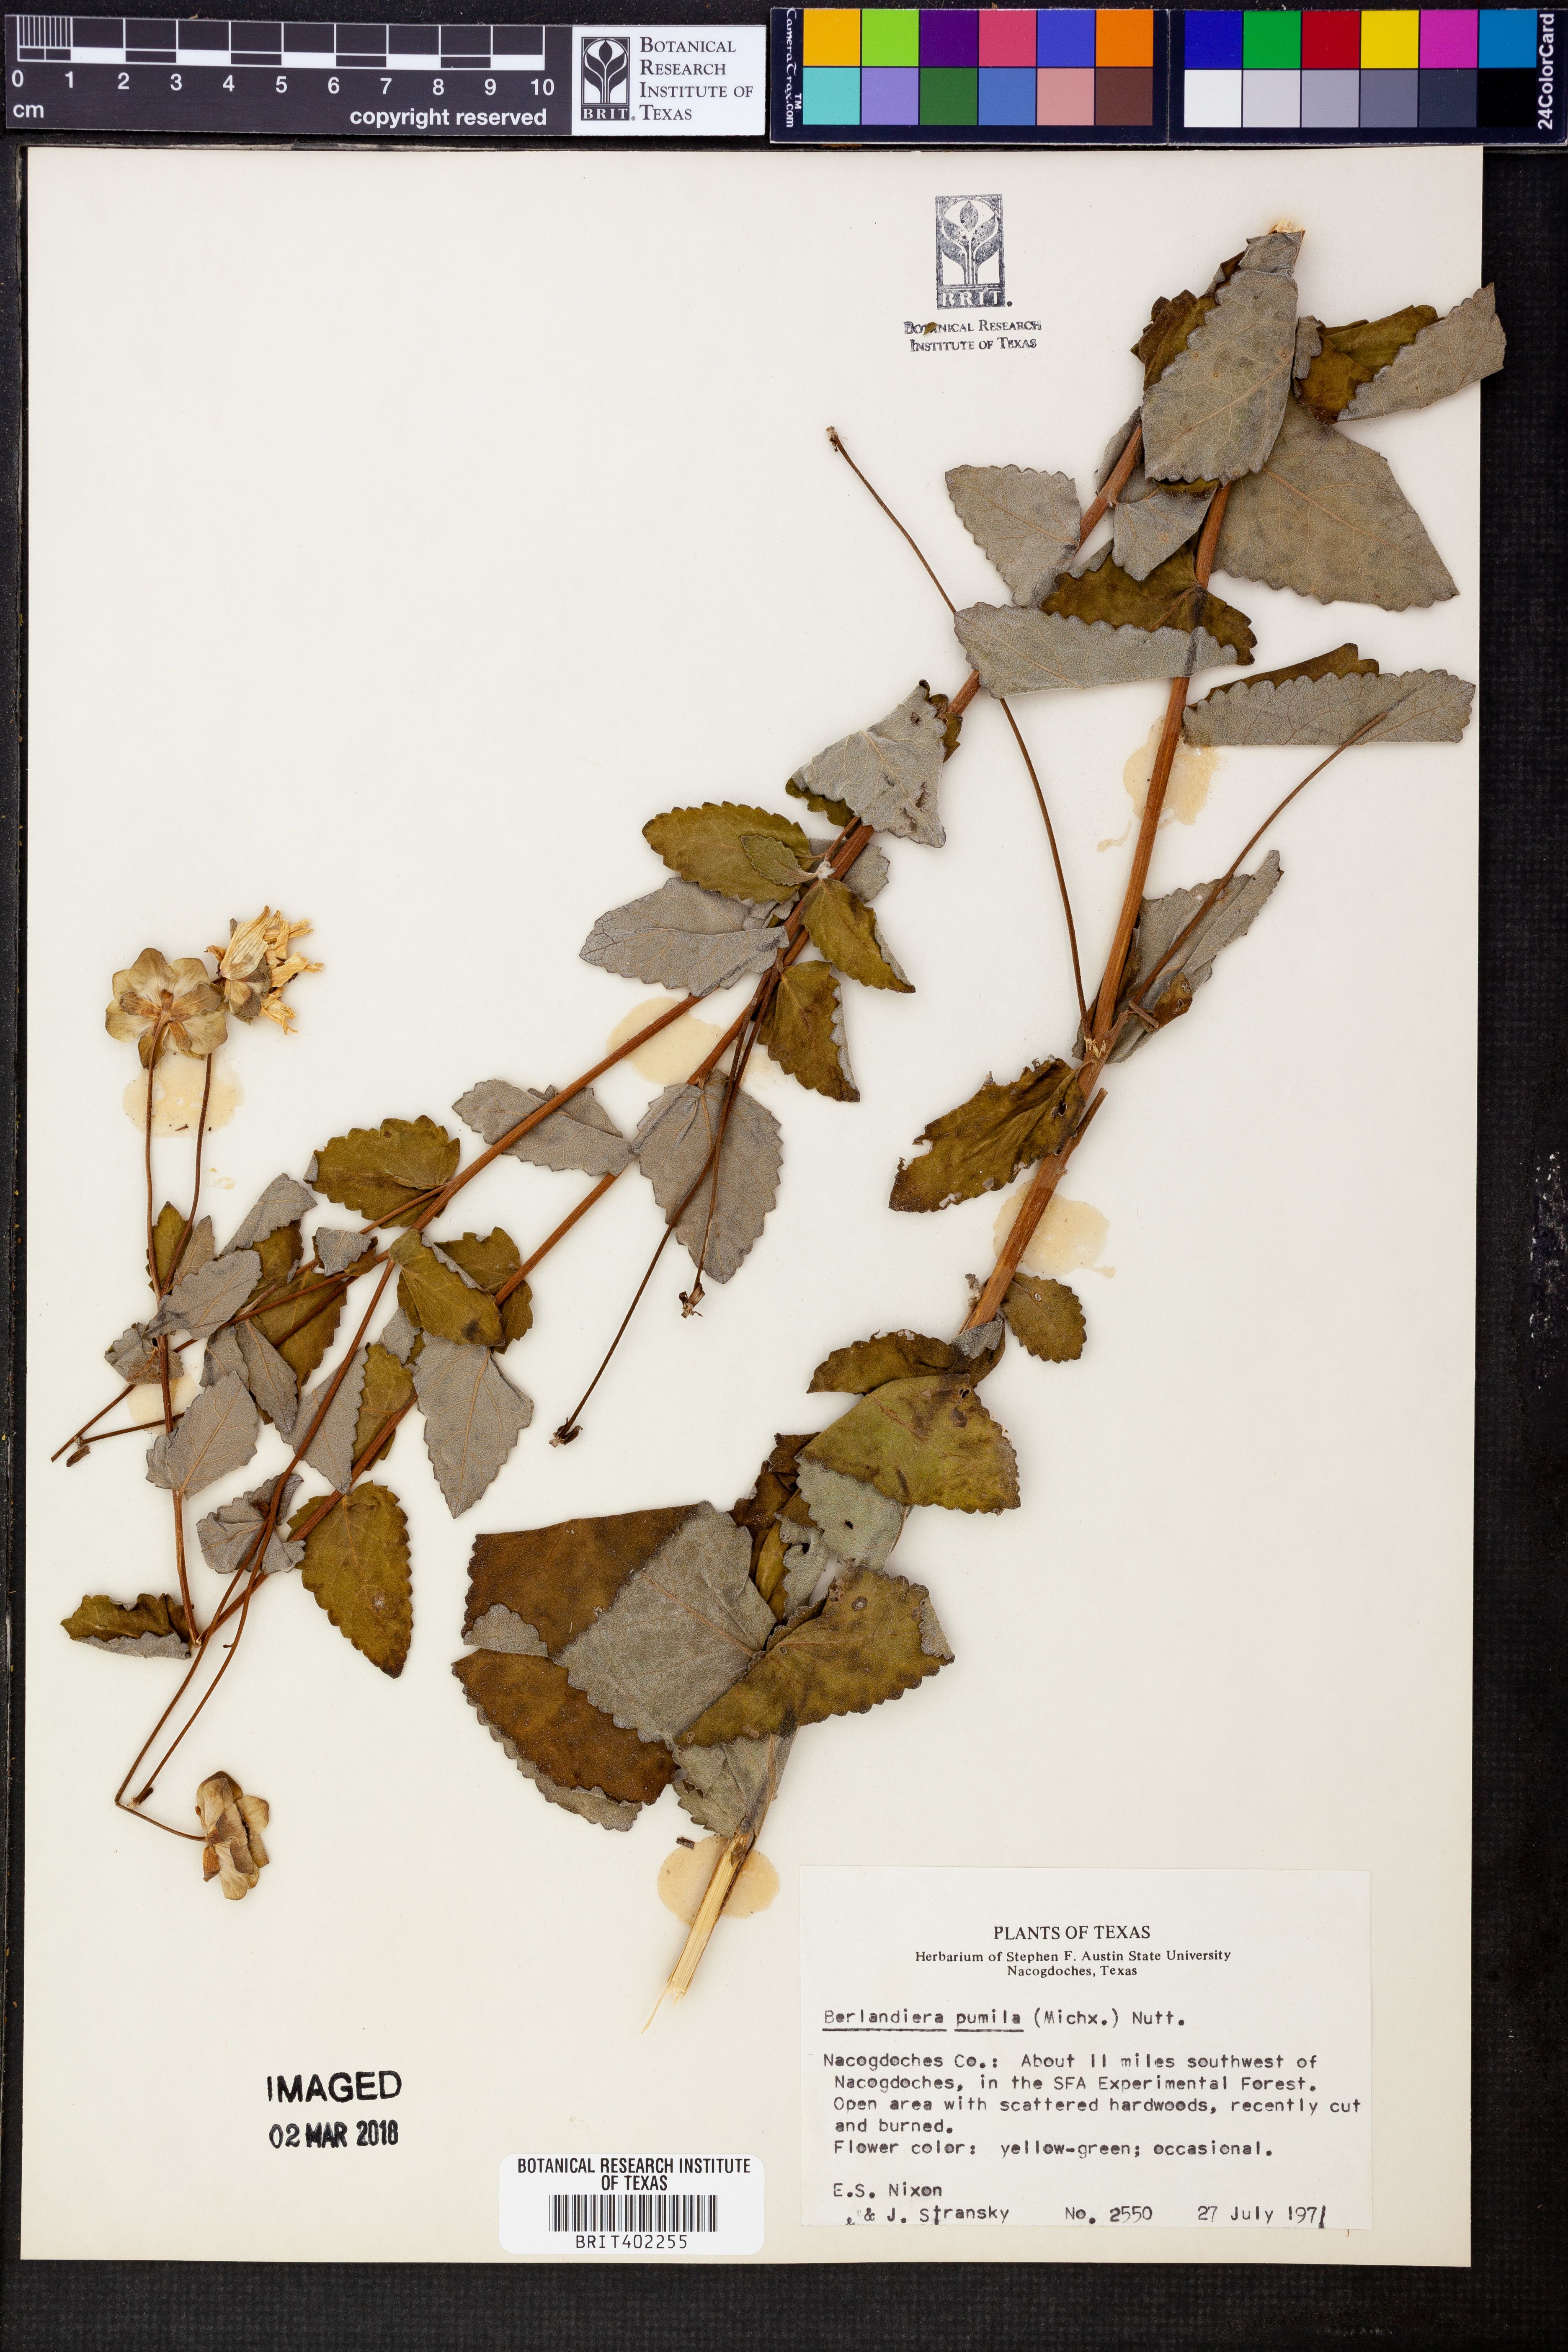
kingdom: Plantae
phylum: Tracheophyta
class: Magnoliopsida
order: Asterales
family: Asteraceae
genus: Berlandiera
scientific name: Berlandiera pumila
